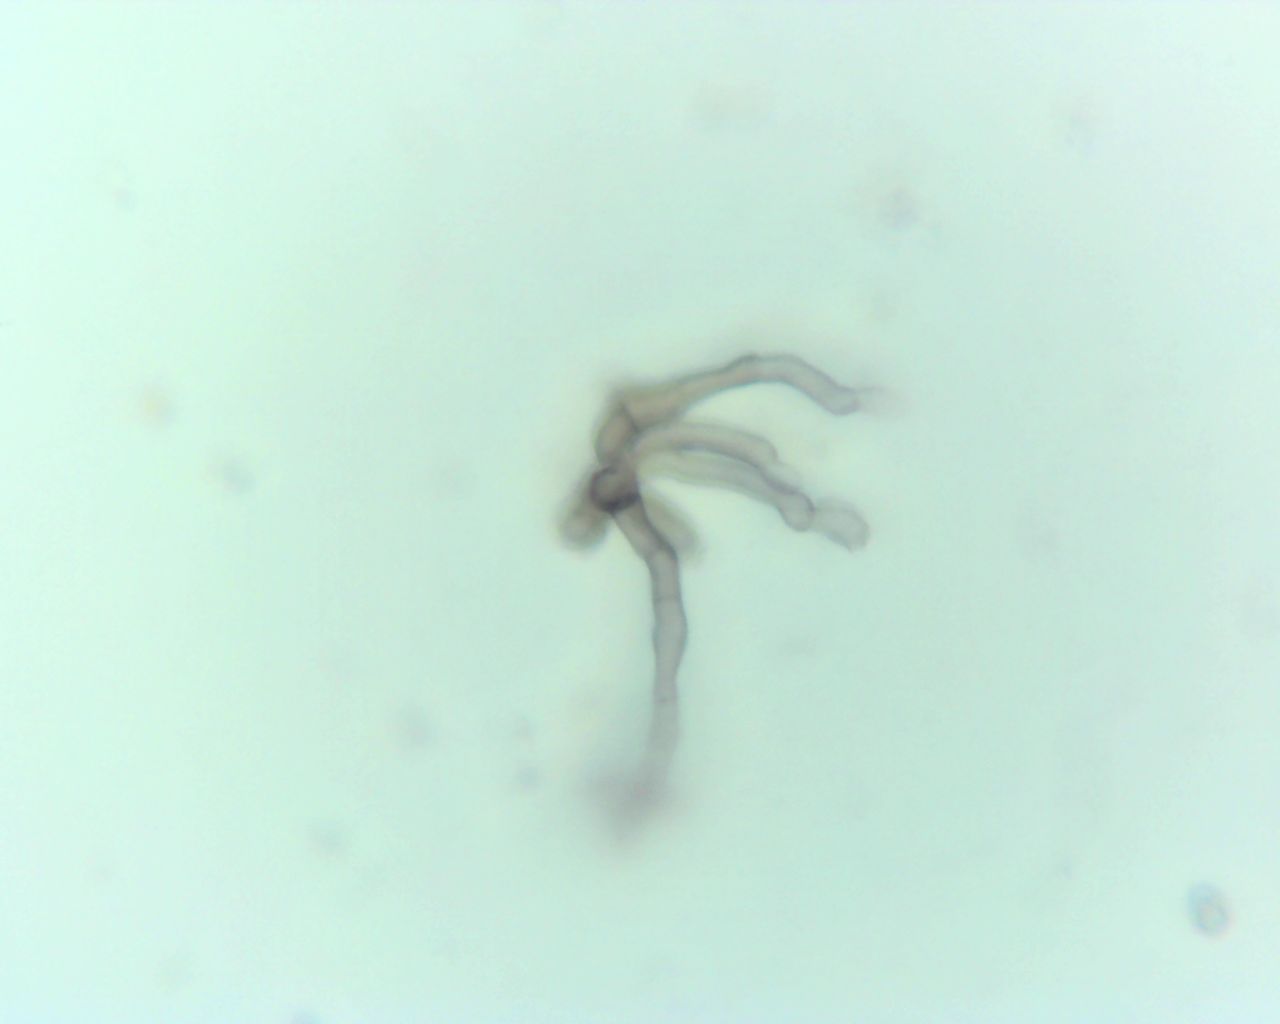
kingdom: Fungi
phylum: Ascomycota
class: Dothideomycetes
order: Capnodiales
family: Cladosporiaceae
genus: Cladosporium
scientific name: Cladosporium
